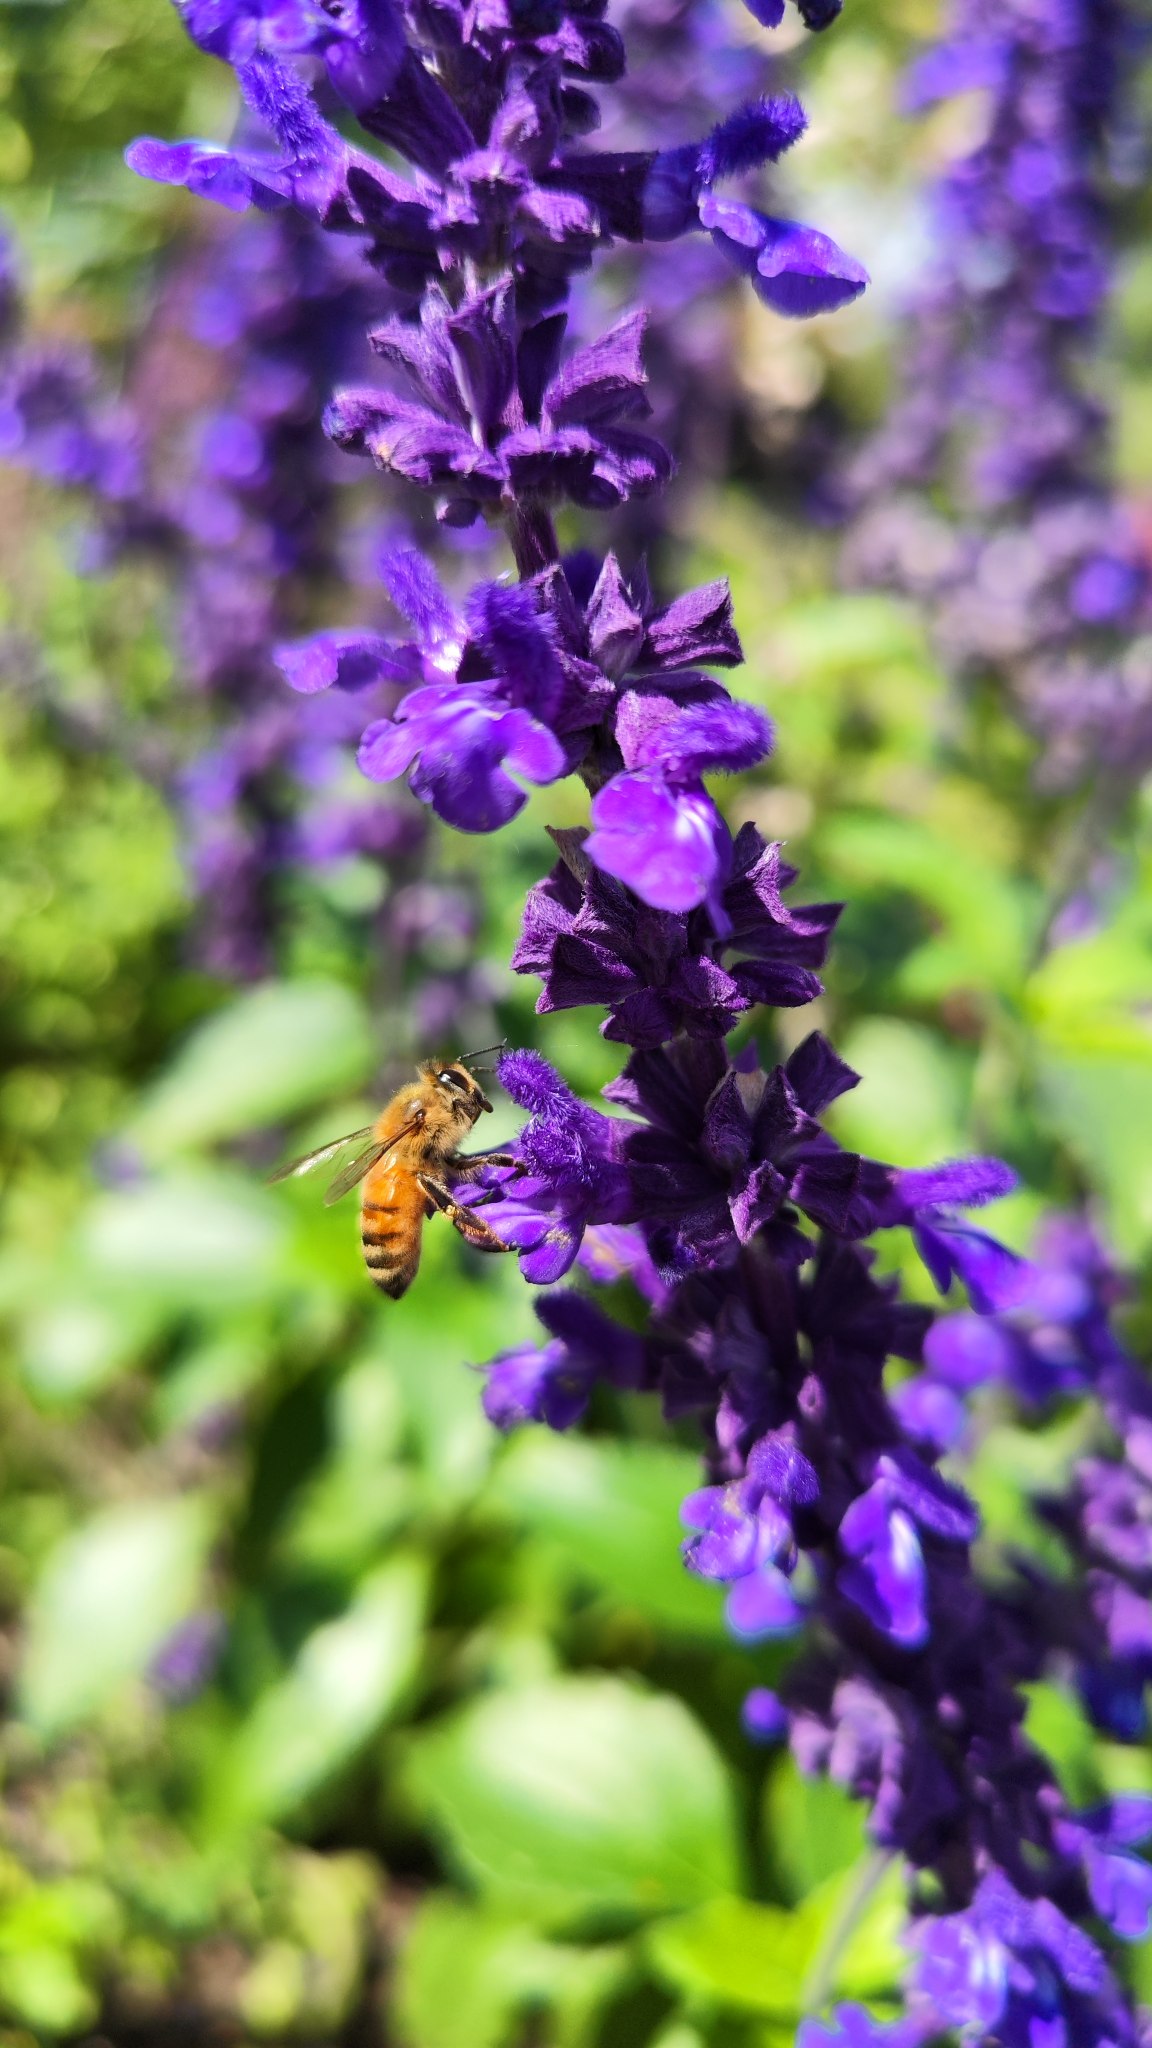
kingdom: Animalia
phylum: Arthropoda
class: Insecta
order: Hymenoptera
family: Apidae
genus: Apis
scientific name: Apis mellifera
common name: Honningbi
